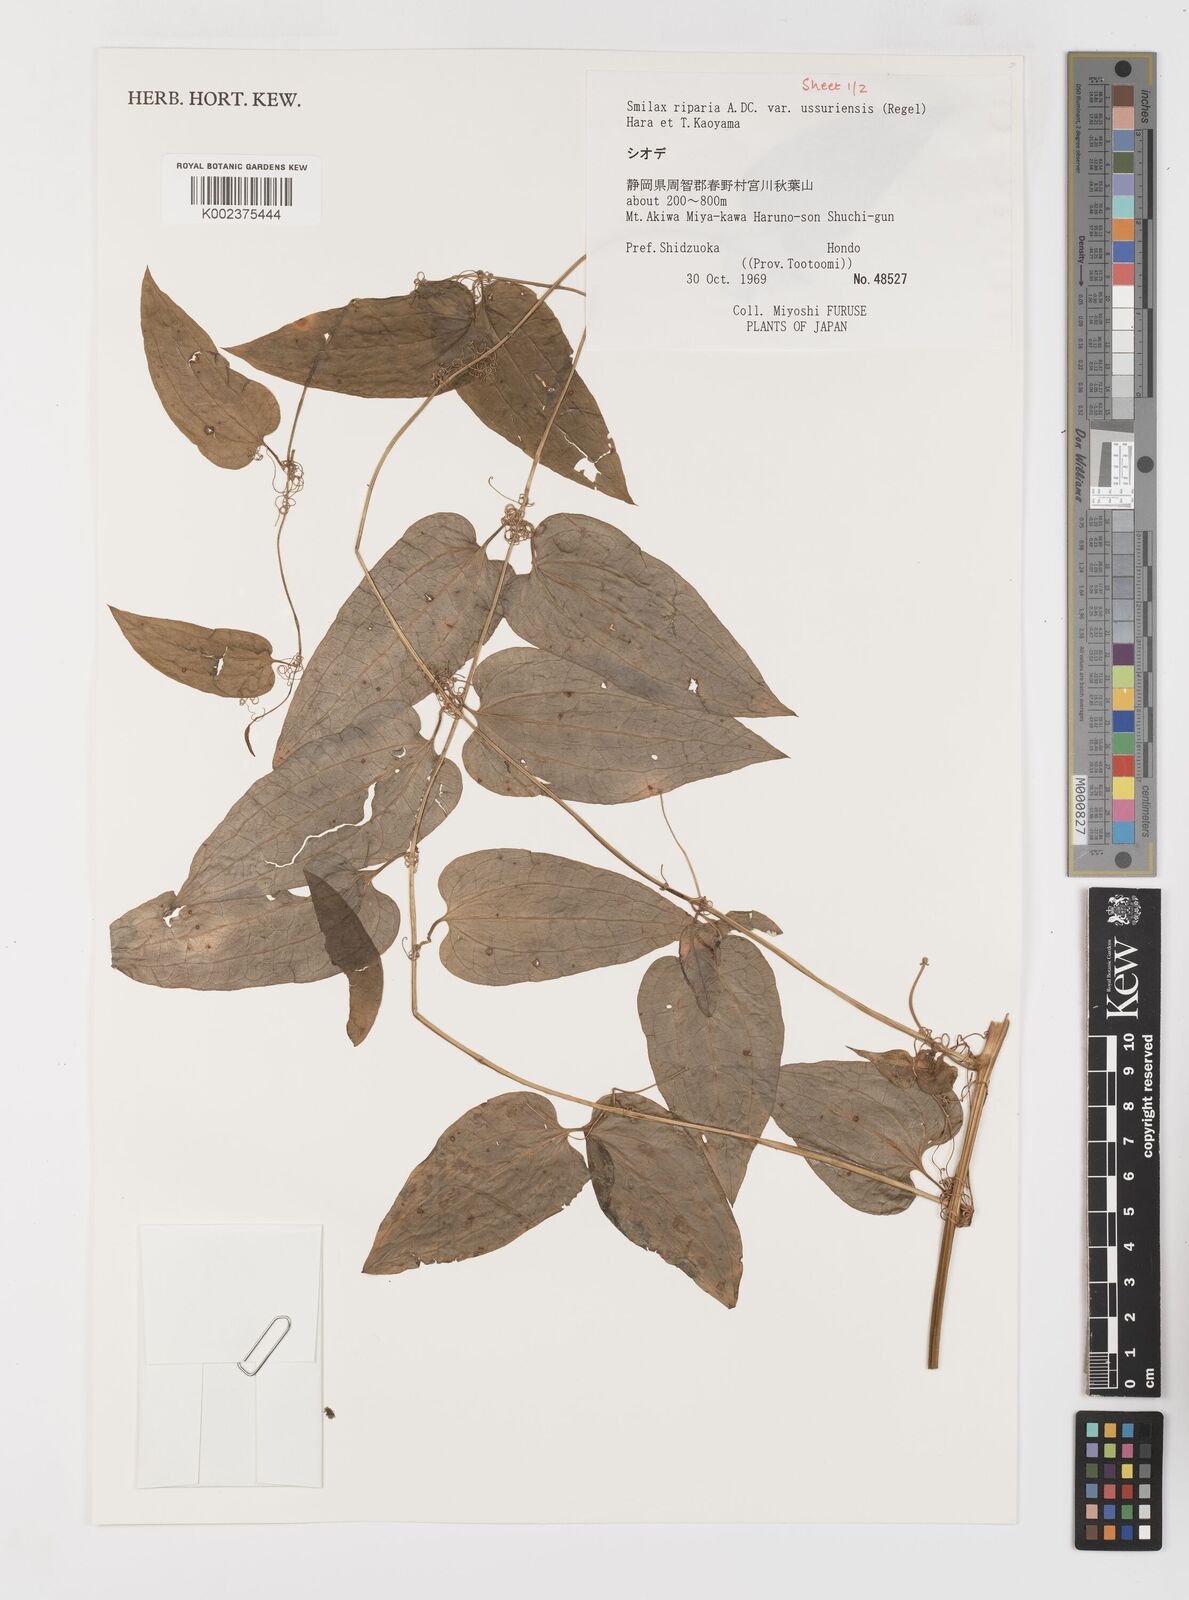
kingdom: Plantae
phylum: Tracheophyta
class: Liliopsida
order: Liliales
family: Smilacaceae
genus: Smilax
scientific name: Smilax riparia
